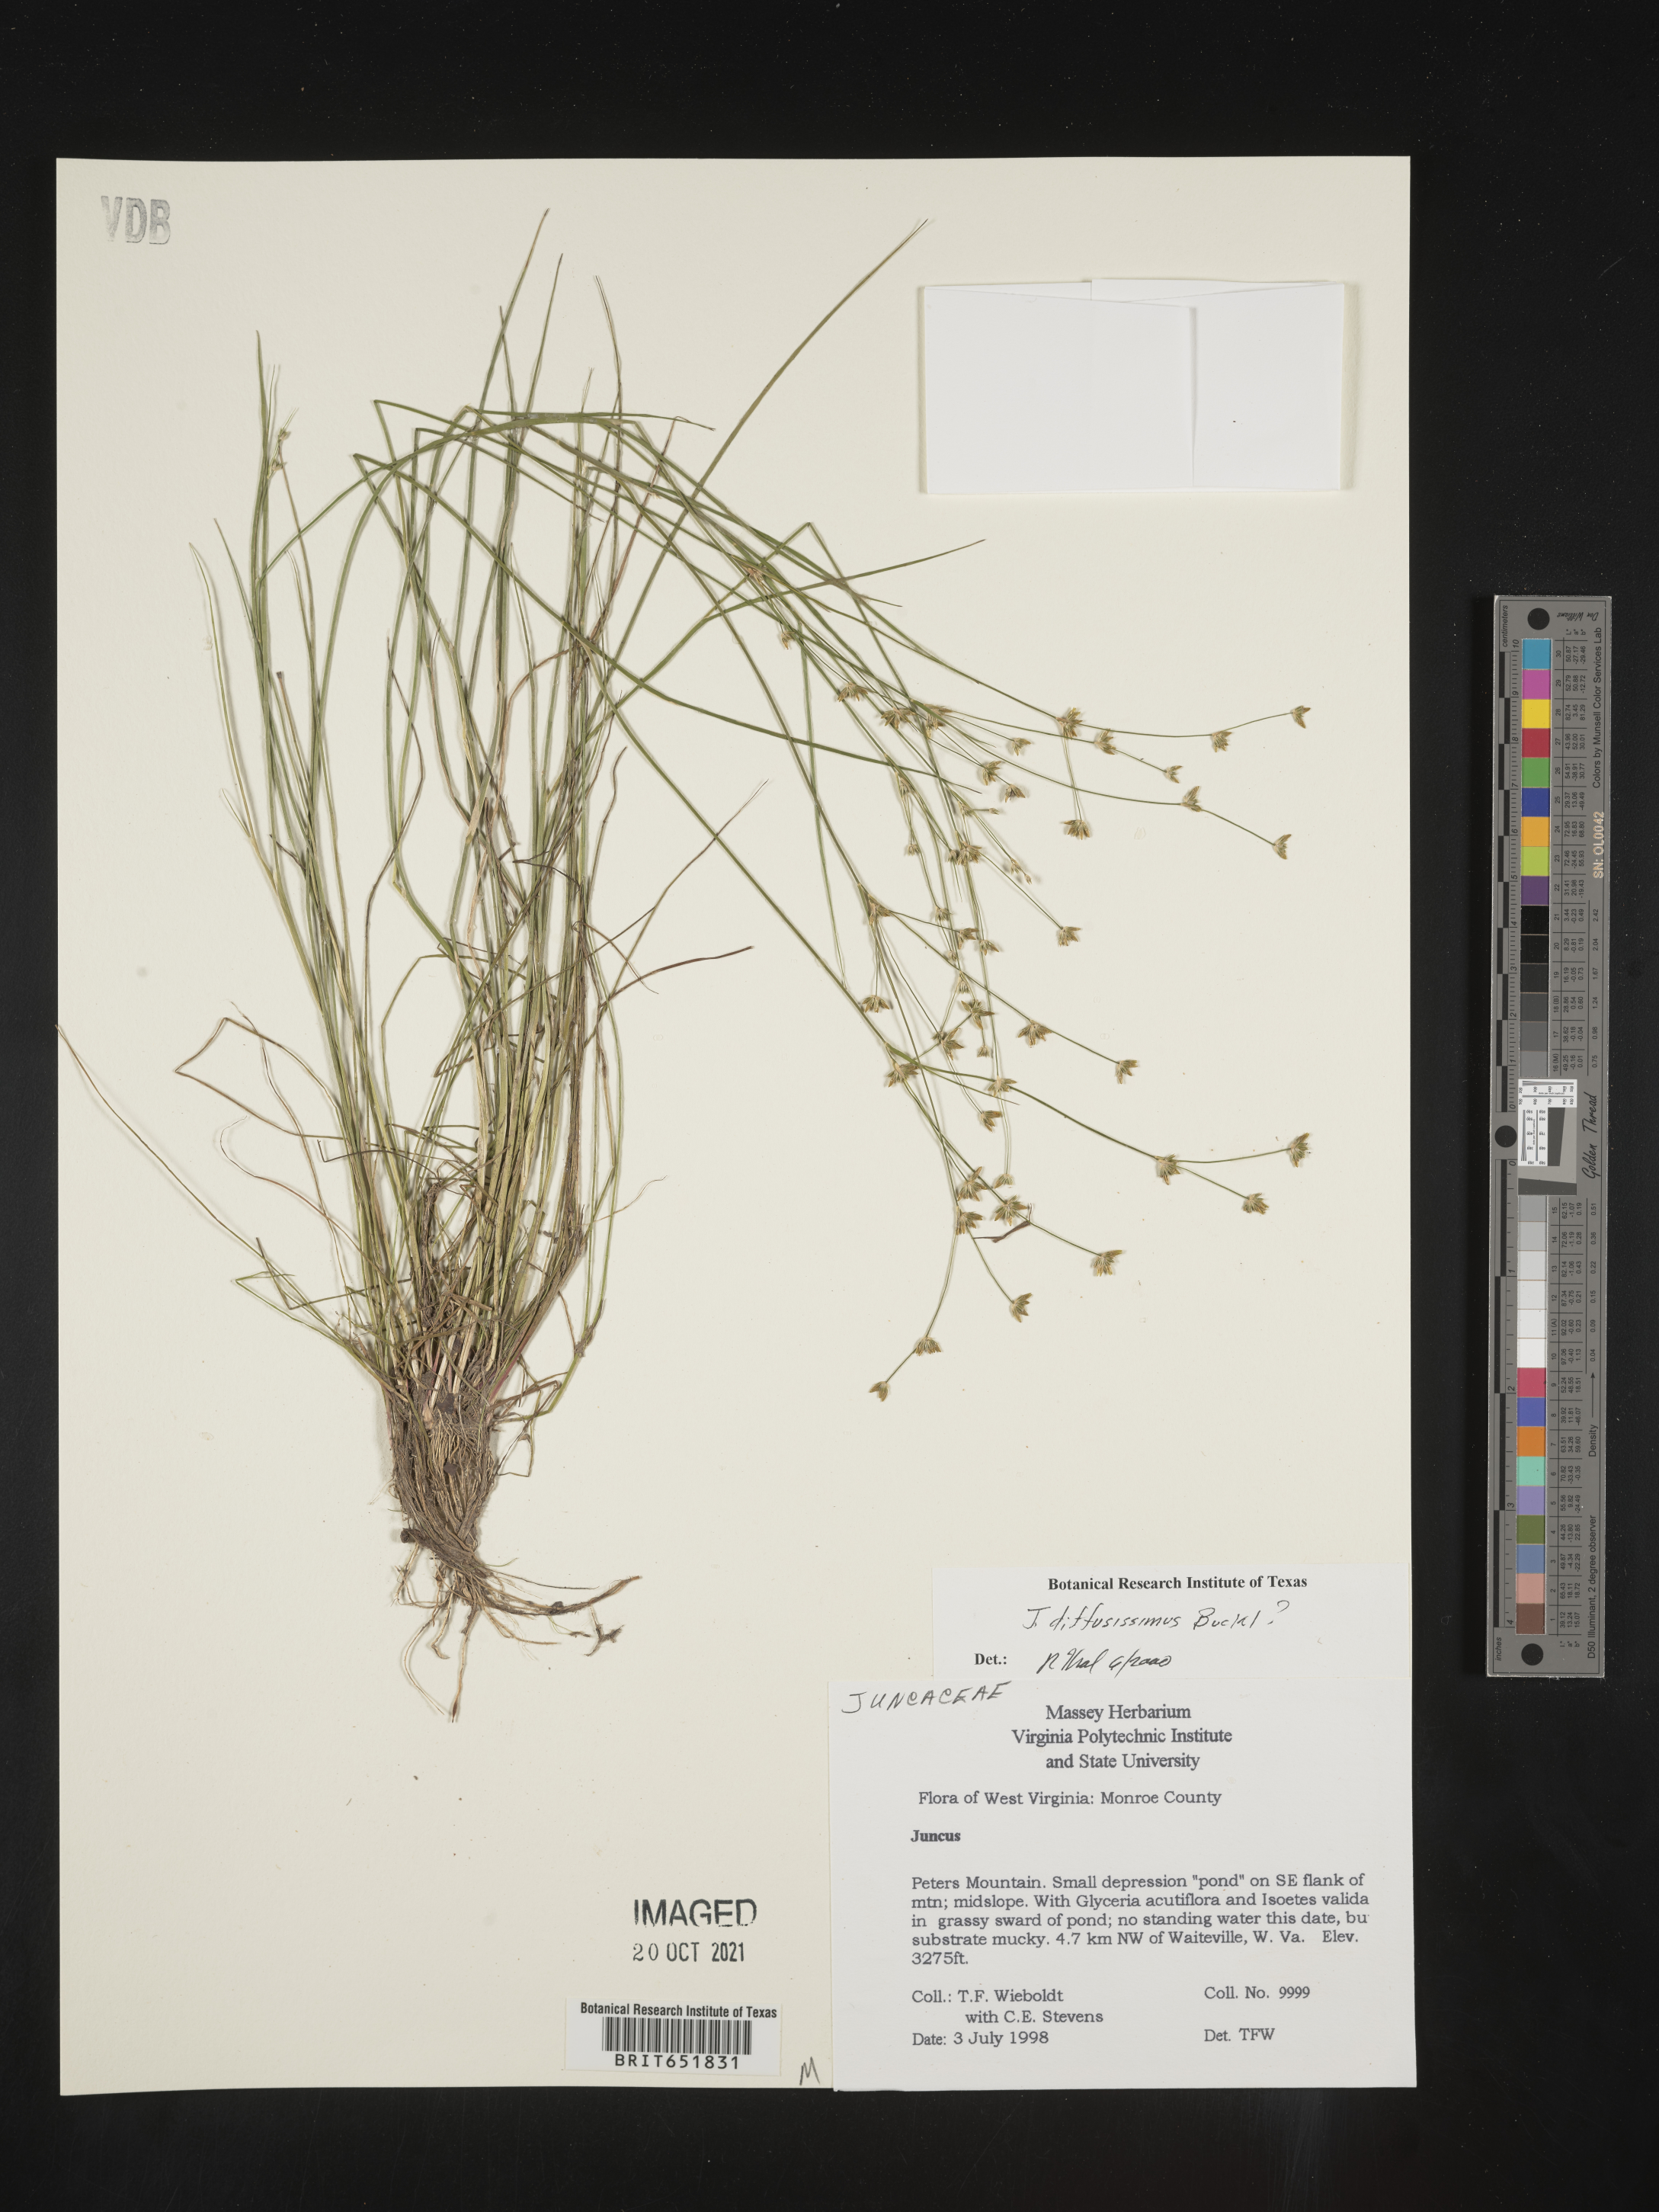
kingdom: Plantae
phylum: Tracheophyta
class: Liliopsida
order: Poales
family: Juncaceae
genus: Juncus
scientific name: Juncus diffusissimus
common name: Slimpod rush
